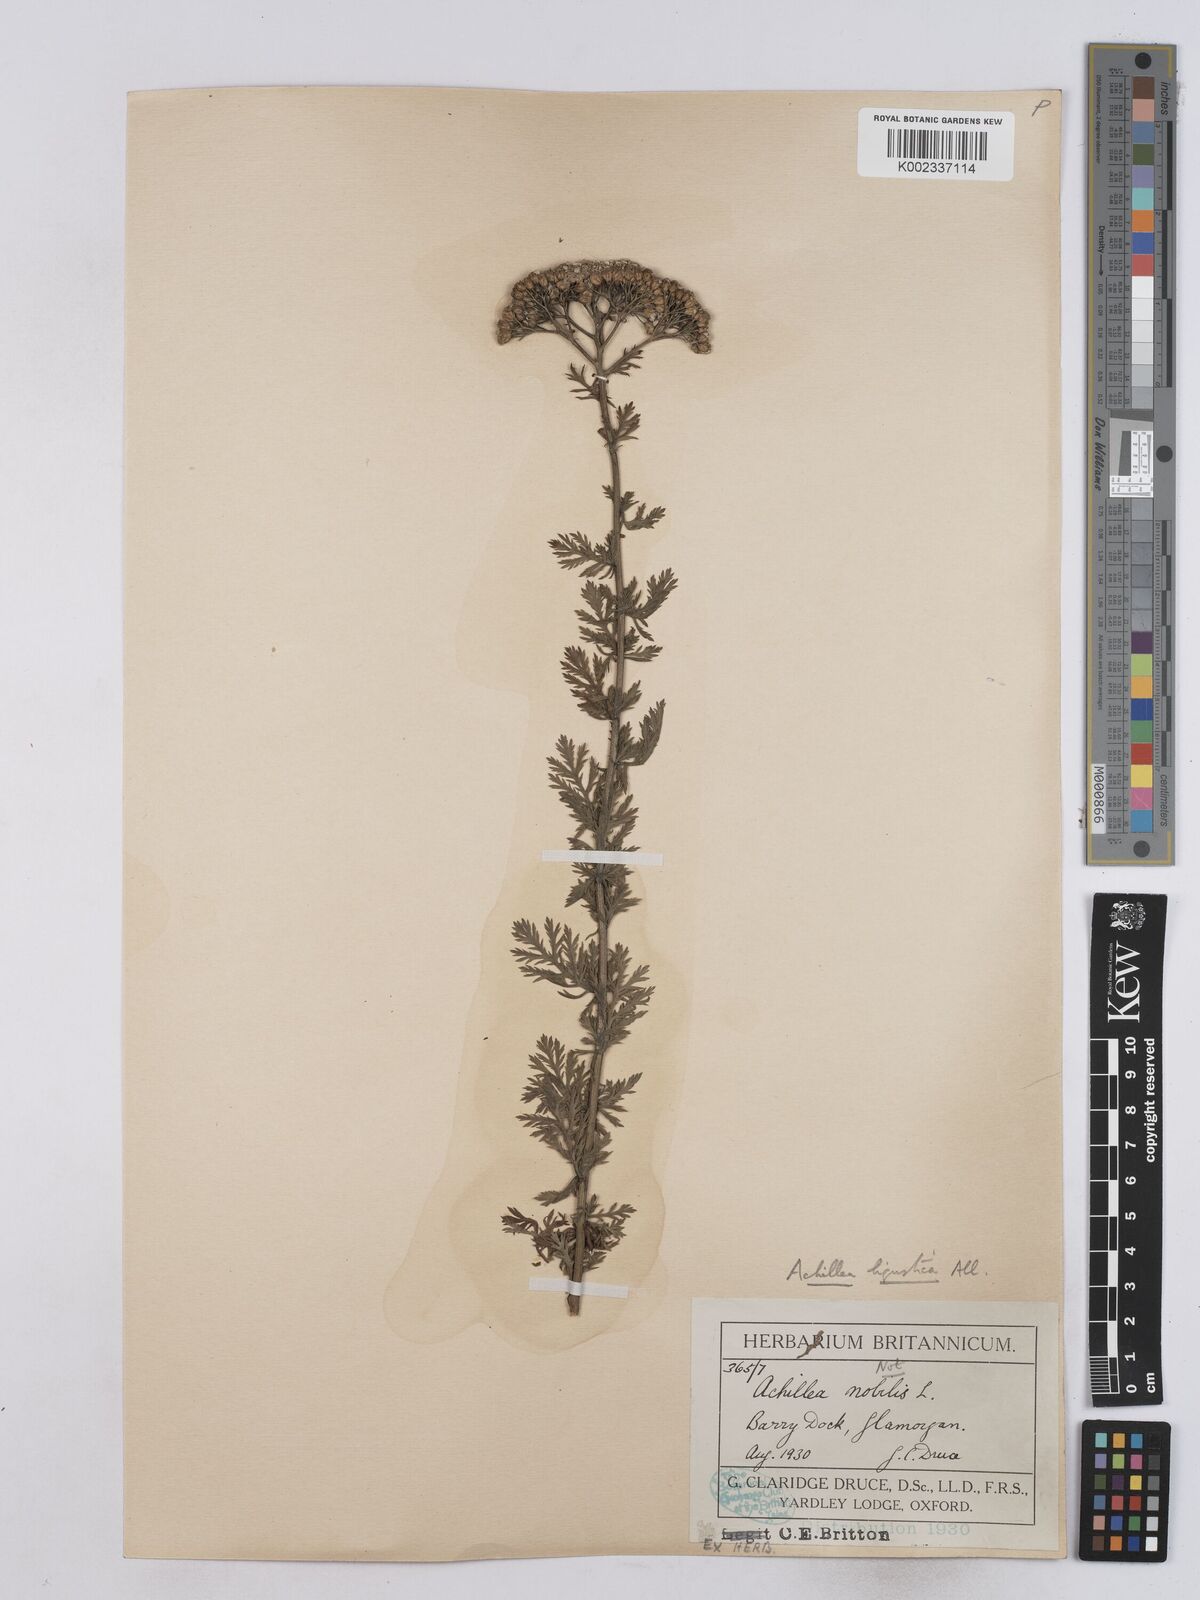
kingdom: Plantae
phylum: Tracheophyta
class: Magnoliopsida
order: Asterales
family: Asteraceae
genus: Achillea
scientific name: Achillea ligustica
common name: Southern yarrow
